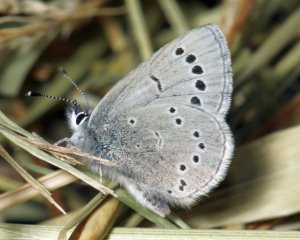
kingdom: Animalia
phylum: Arthropoda
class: Insecta
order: Lepidoptera
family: Lycaenidae
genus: Glaucopsyche
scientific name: Glaucopsyche lygdamus
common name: Silvery Blue
